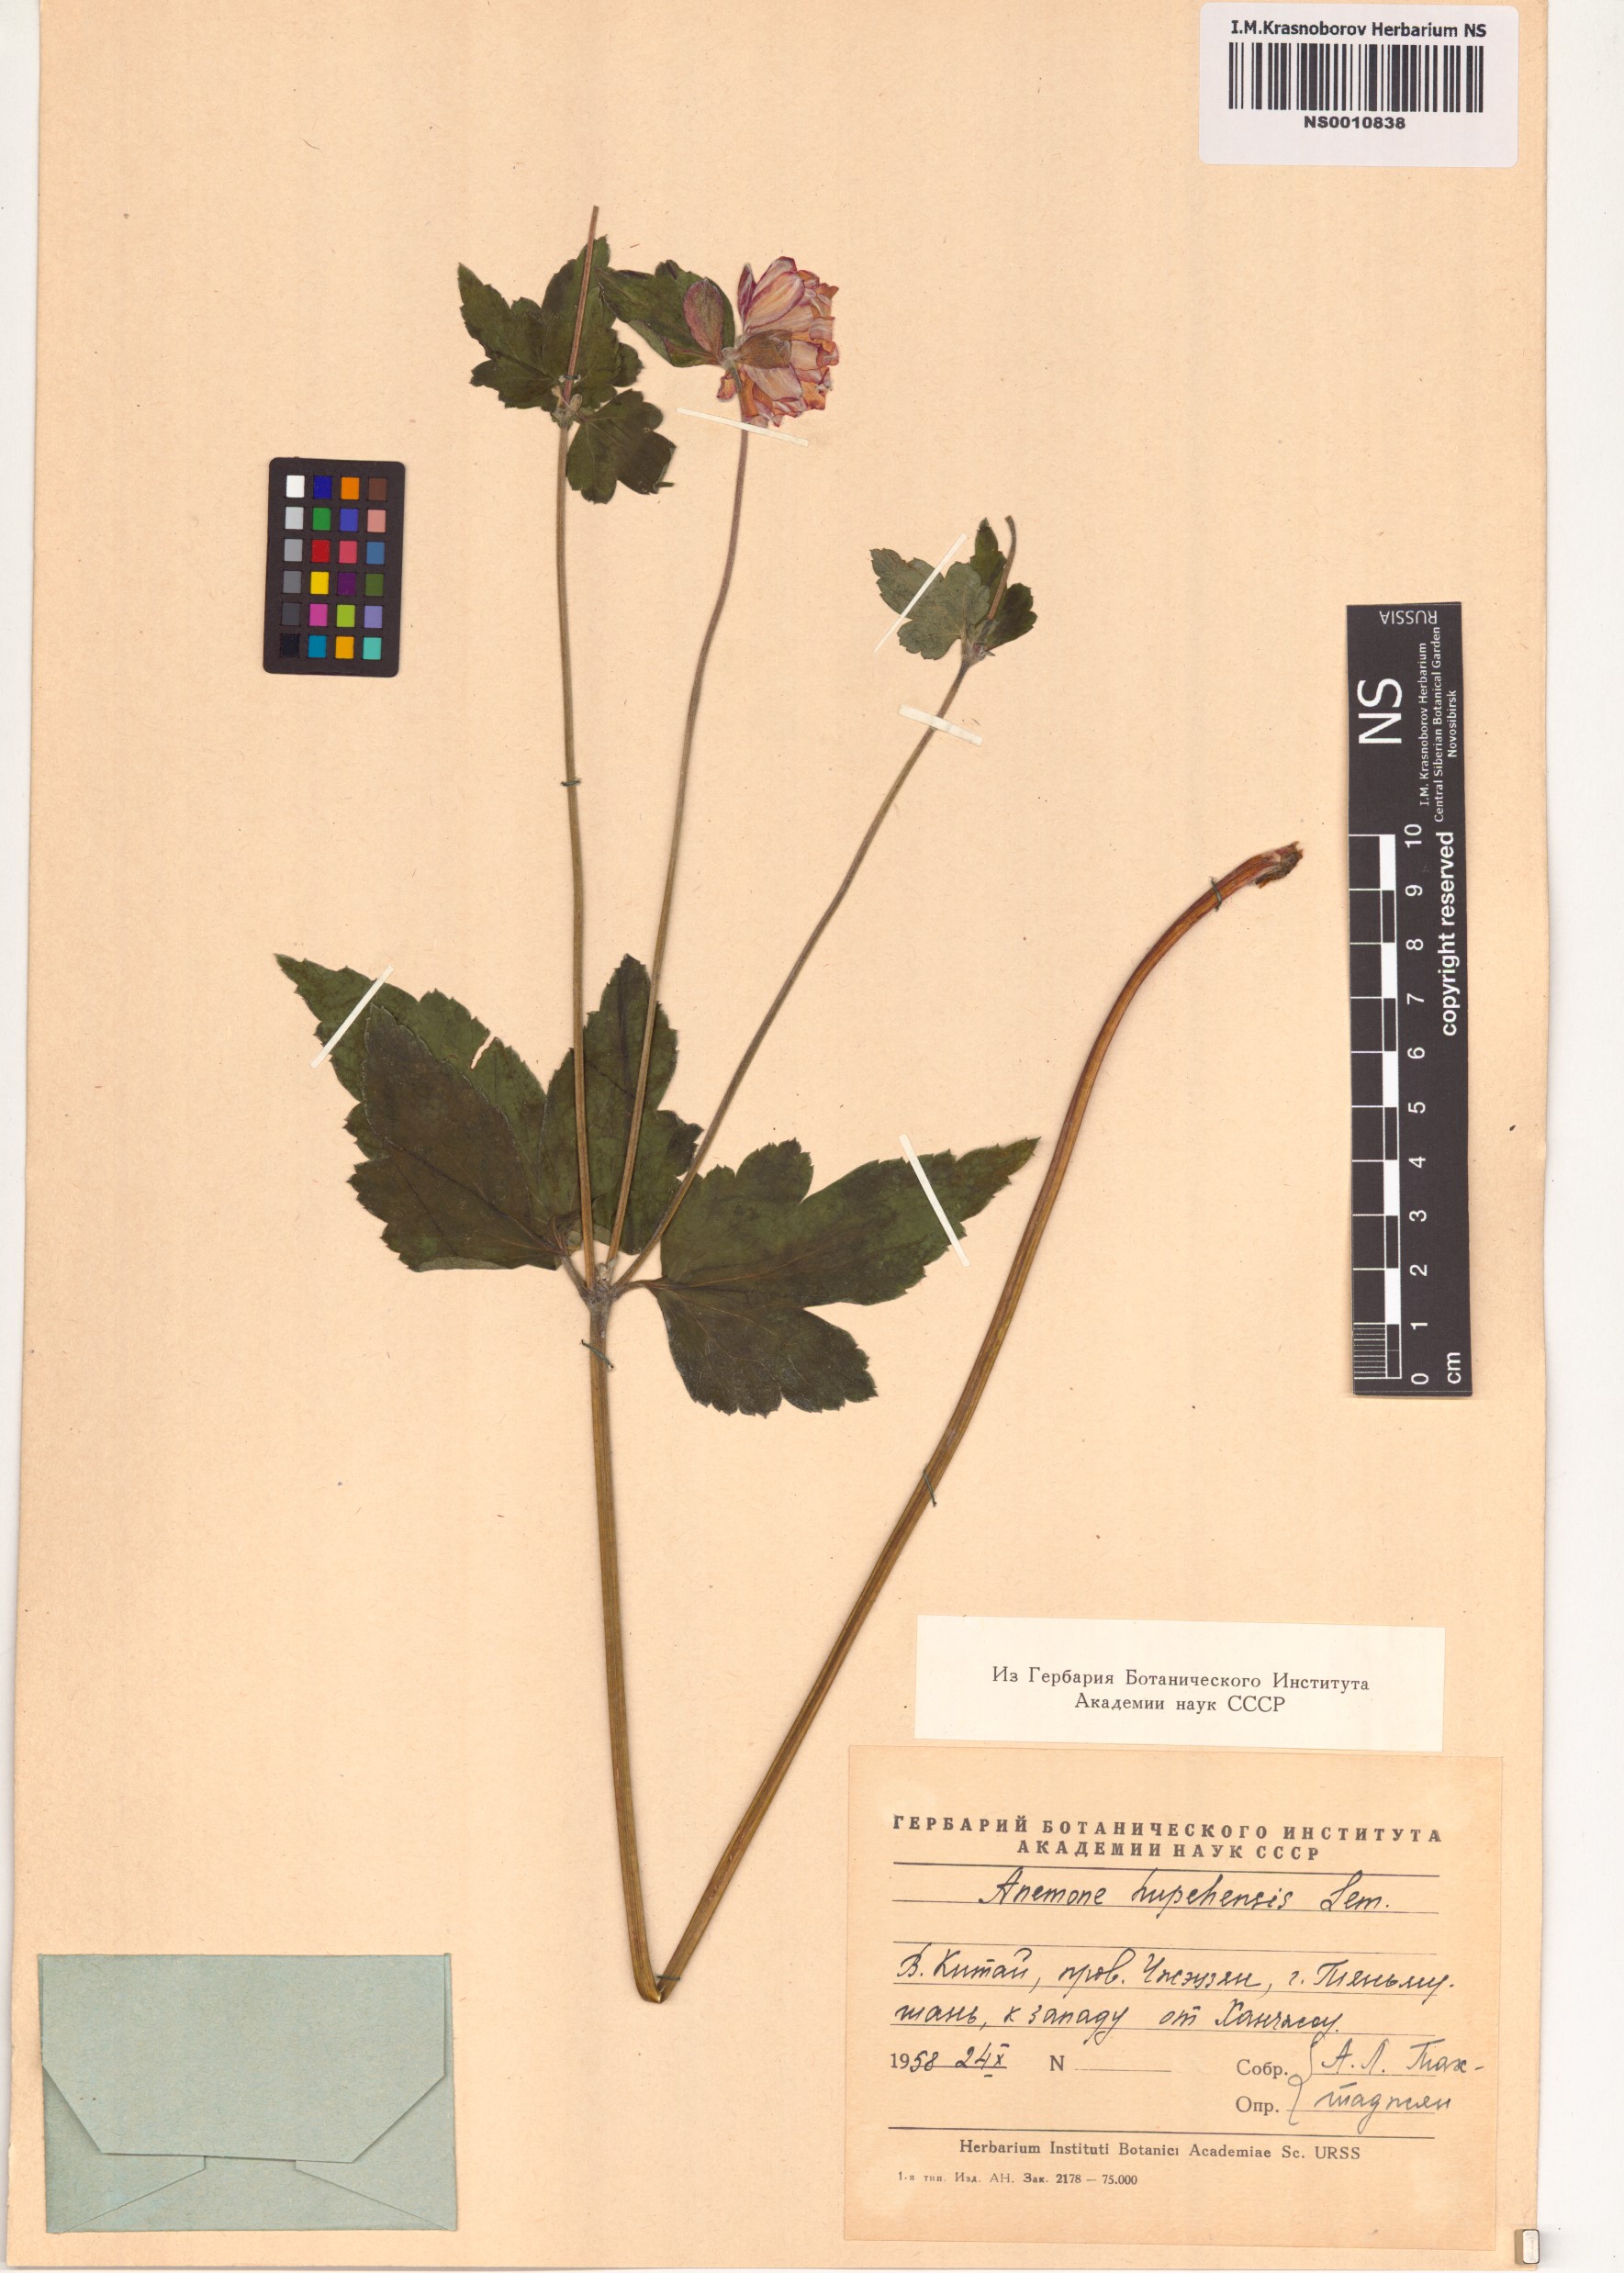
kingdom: Plantae
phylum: Tracheophyta
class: Magnoliopsida
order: Ranunculales
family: Ranunculaceae
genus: Eriocapitella
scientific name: Eriocapitella hupehensis
